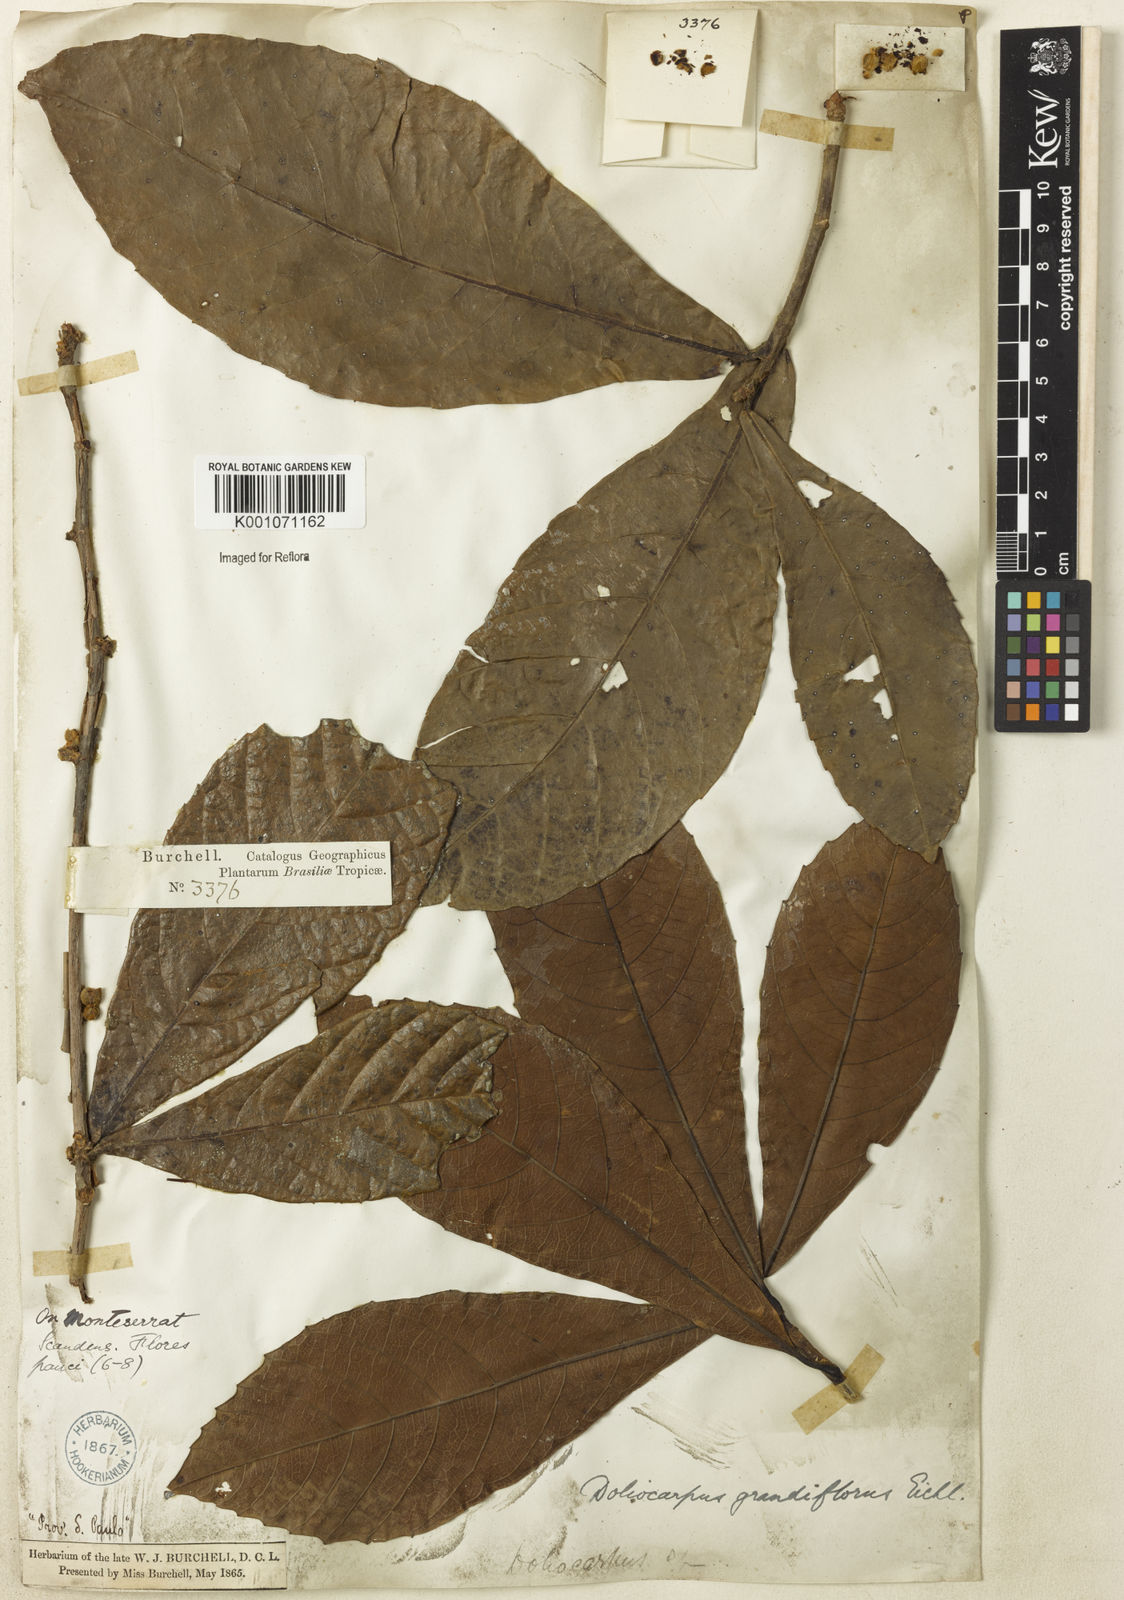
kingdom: Plantae
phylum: Tracheophyta
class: Magnoliopsida
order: Dilleniales
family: Dilleniaceae
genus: Doliocarpus
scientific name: Doliocarpus grandiflorus
